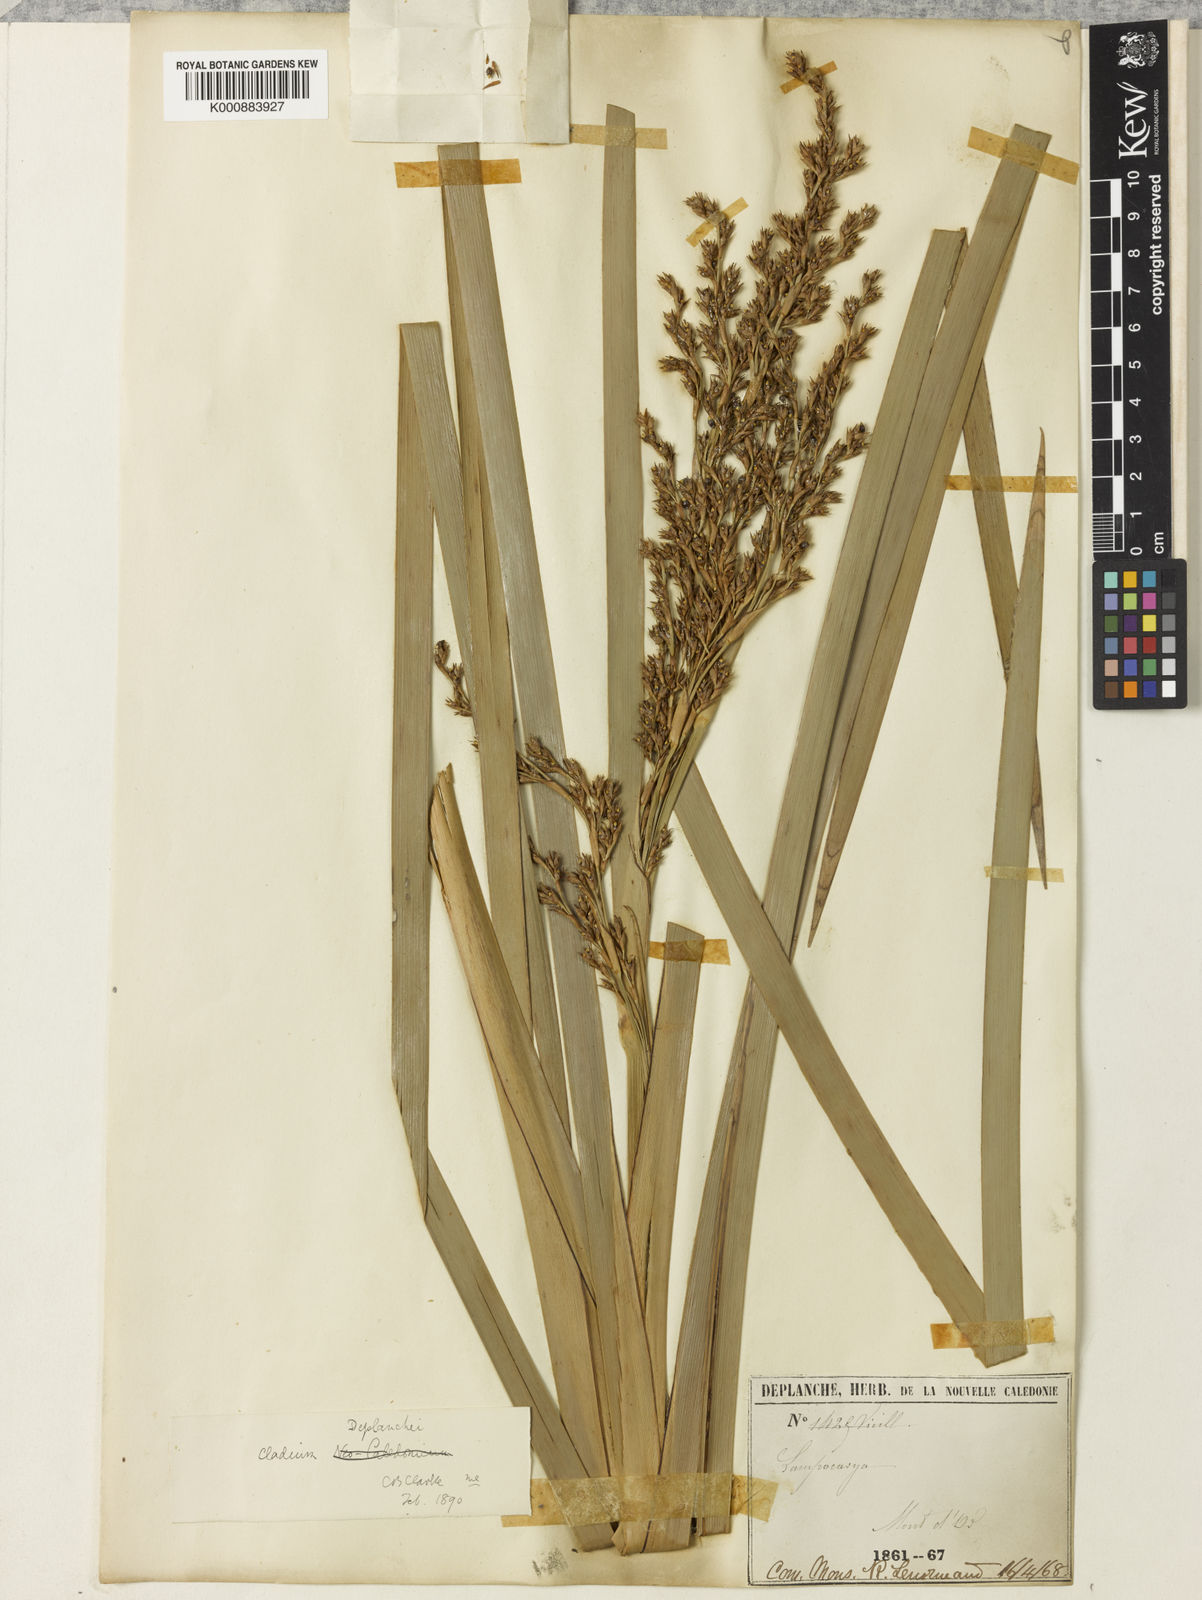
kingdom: Plantae
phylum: Tracheophyta
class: Liliopsida
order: Poales
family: Cyperaceae
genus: Machaerina
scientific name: Machaerina deplanchei
